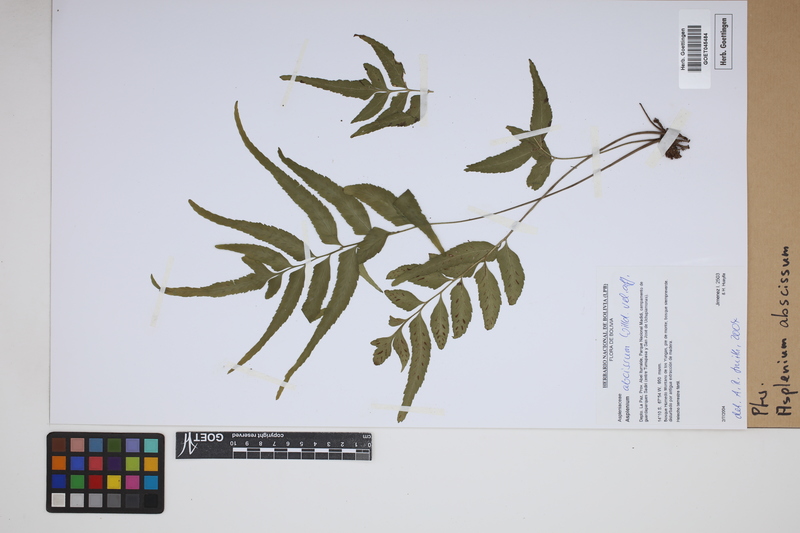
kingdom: Plantae
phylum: Tracheophyta
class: Polypodiopsida
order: Polypodiales
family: Aspleniaceae
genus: Asplenium
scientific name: Asplenium abscissum
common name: Cutleaf spleenwort
